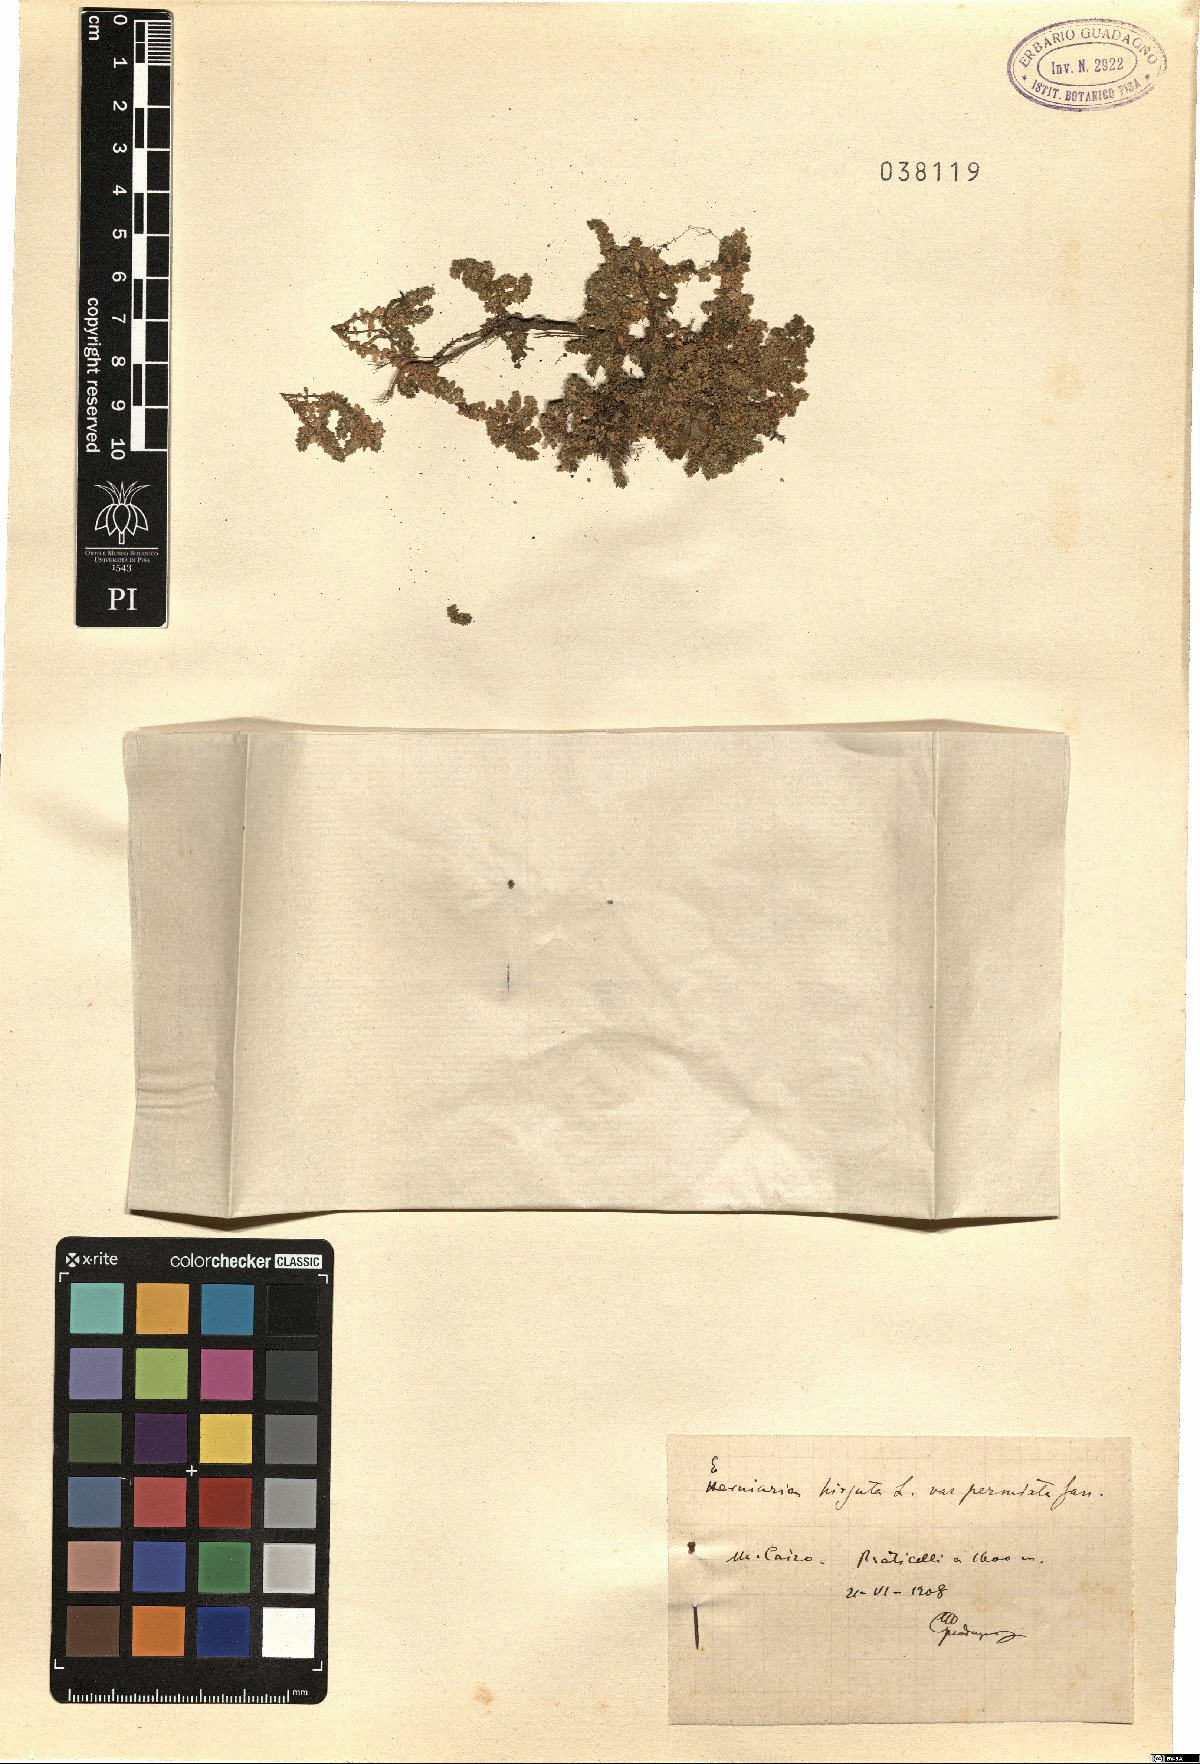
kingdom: Plantae
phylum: Tracheophyta
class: Magnoliopsida
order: Caryophyllales
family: Caryophyllaceae
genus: Herniaria
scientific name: Herniaria hirsuta
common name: Hairy rupturewort
